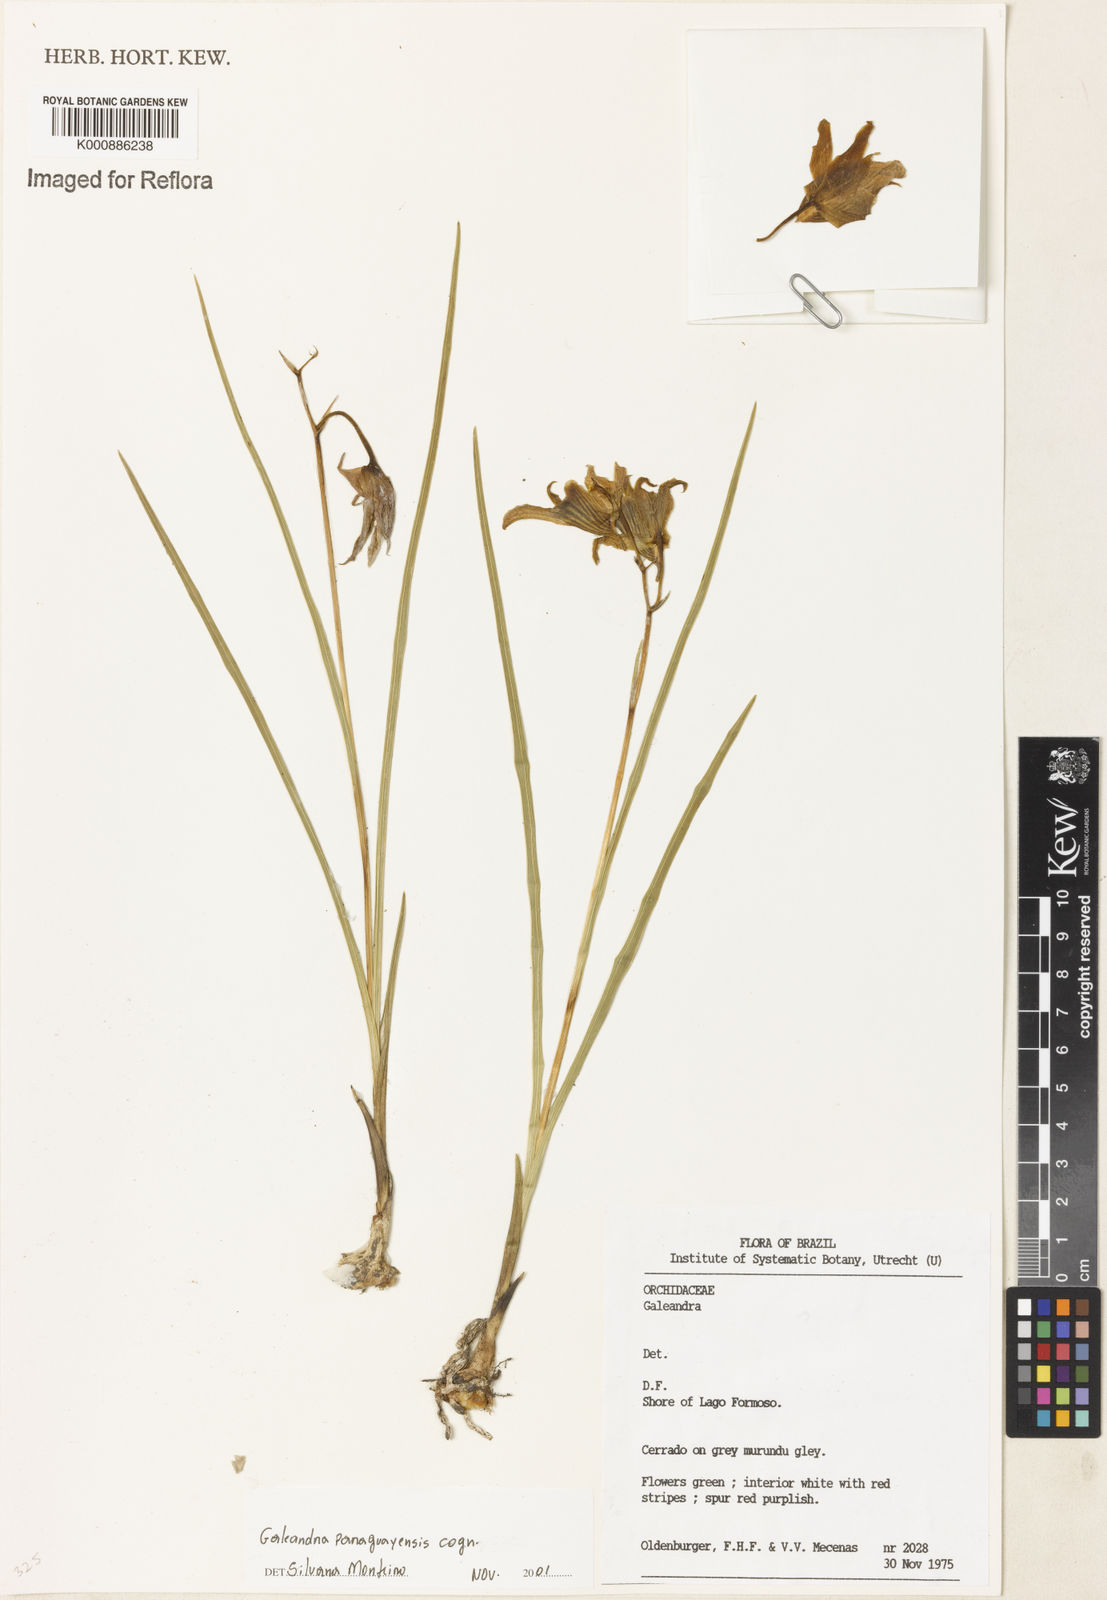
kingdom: Plantae
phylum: Tracheophyta
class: Liliopsida
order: Asparagales
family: Orchidaceae
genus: Galeandra
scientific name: Galeandra paraguayensis
